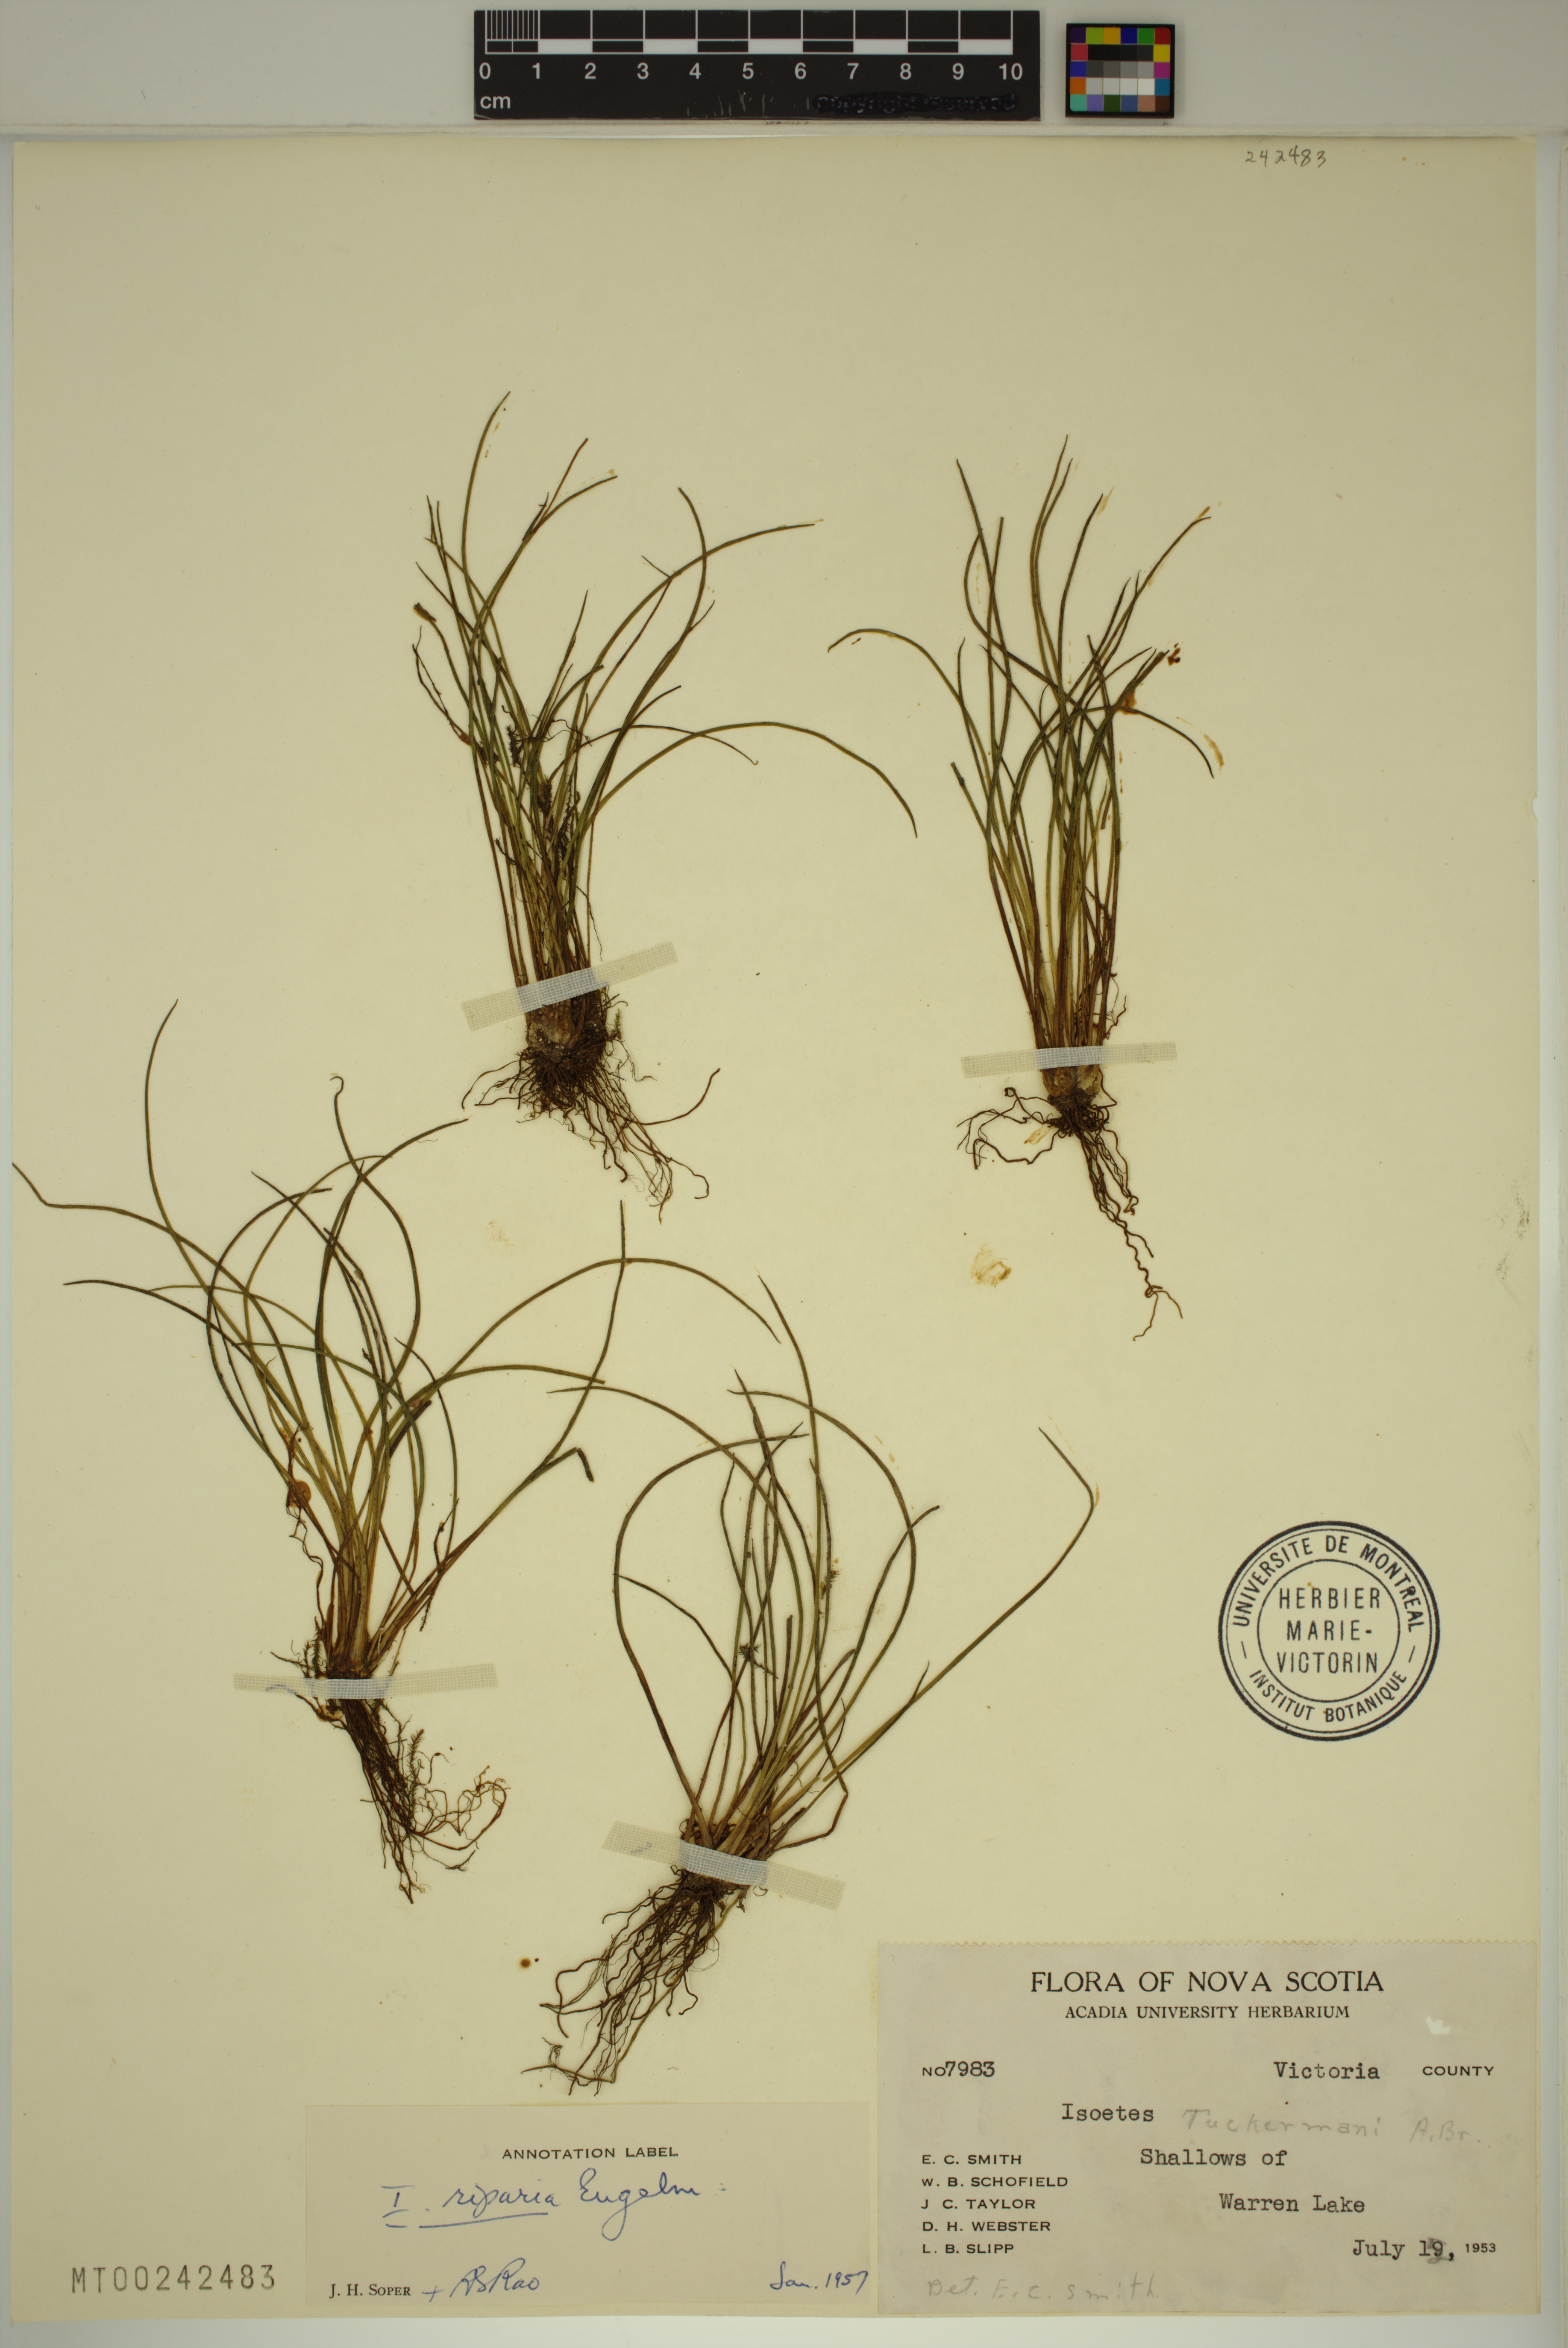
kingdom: Plantae
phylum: Tracheophyta
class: Lycopodiopsida
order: Isoetales
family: Isoetaceae
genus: Isoetes
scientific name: Isoetes lacustris
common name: Common quillwort
